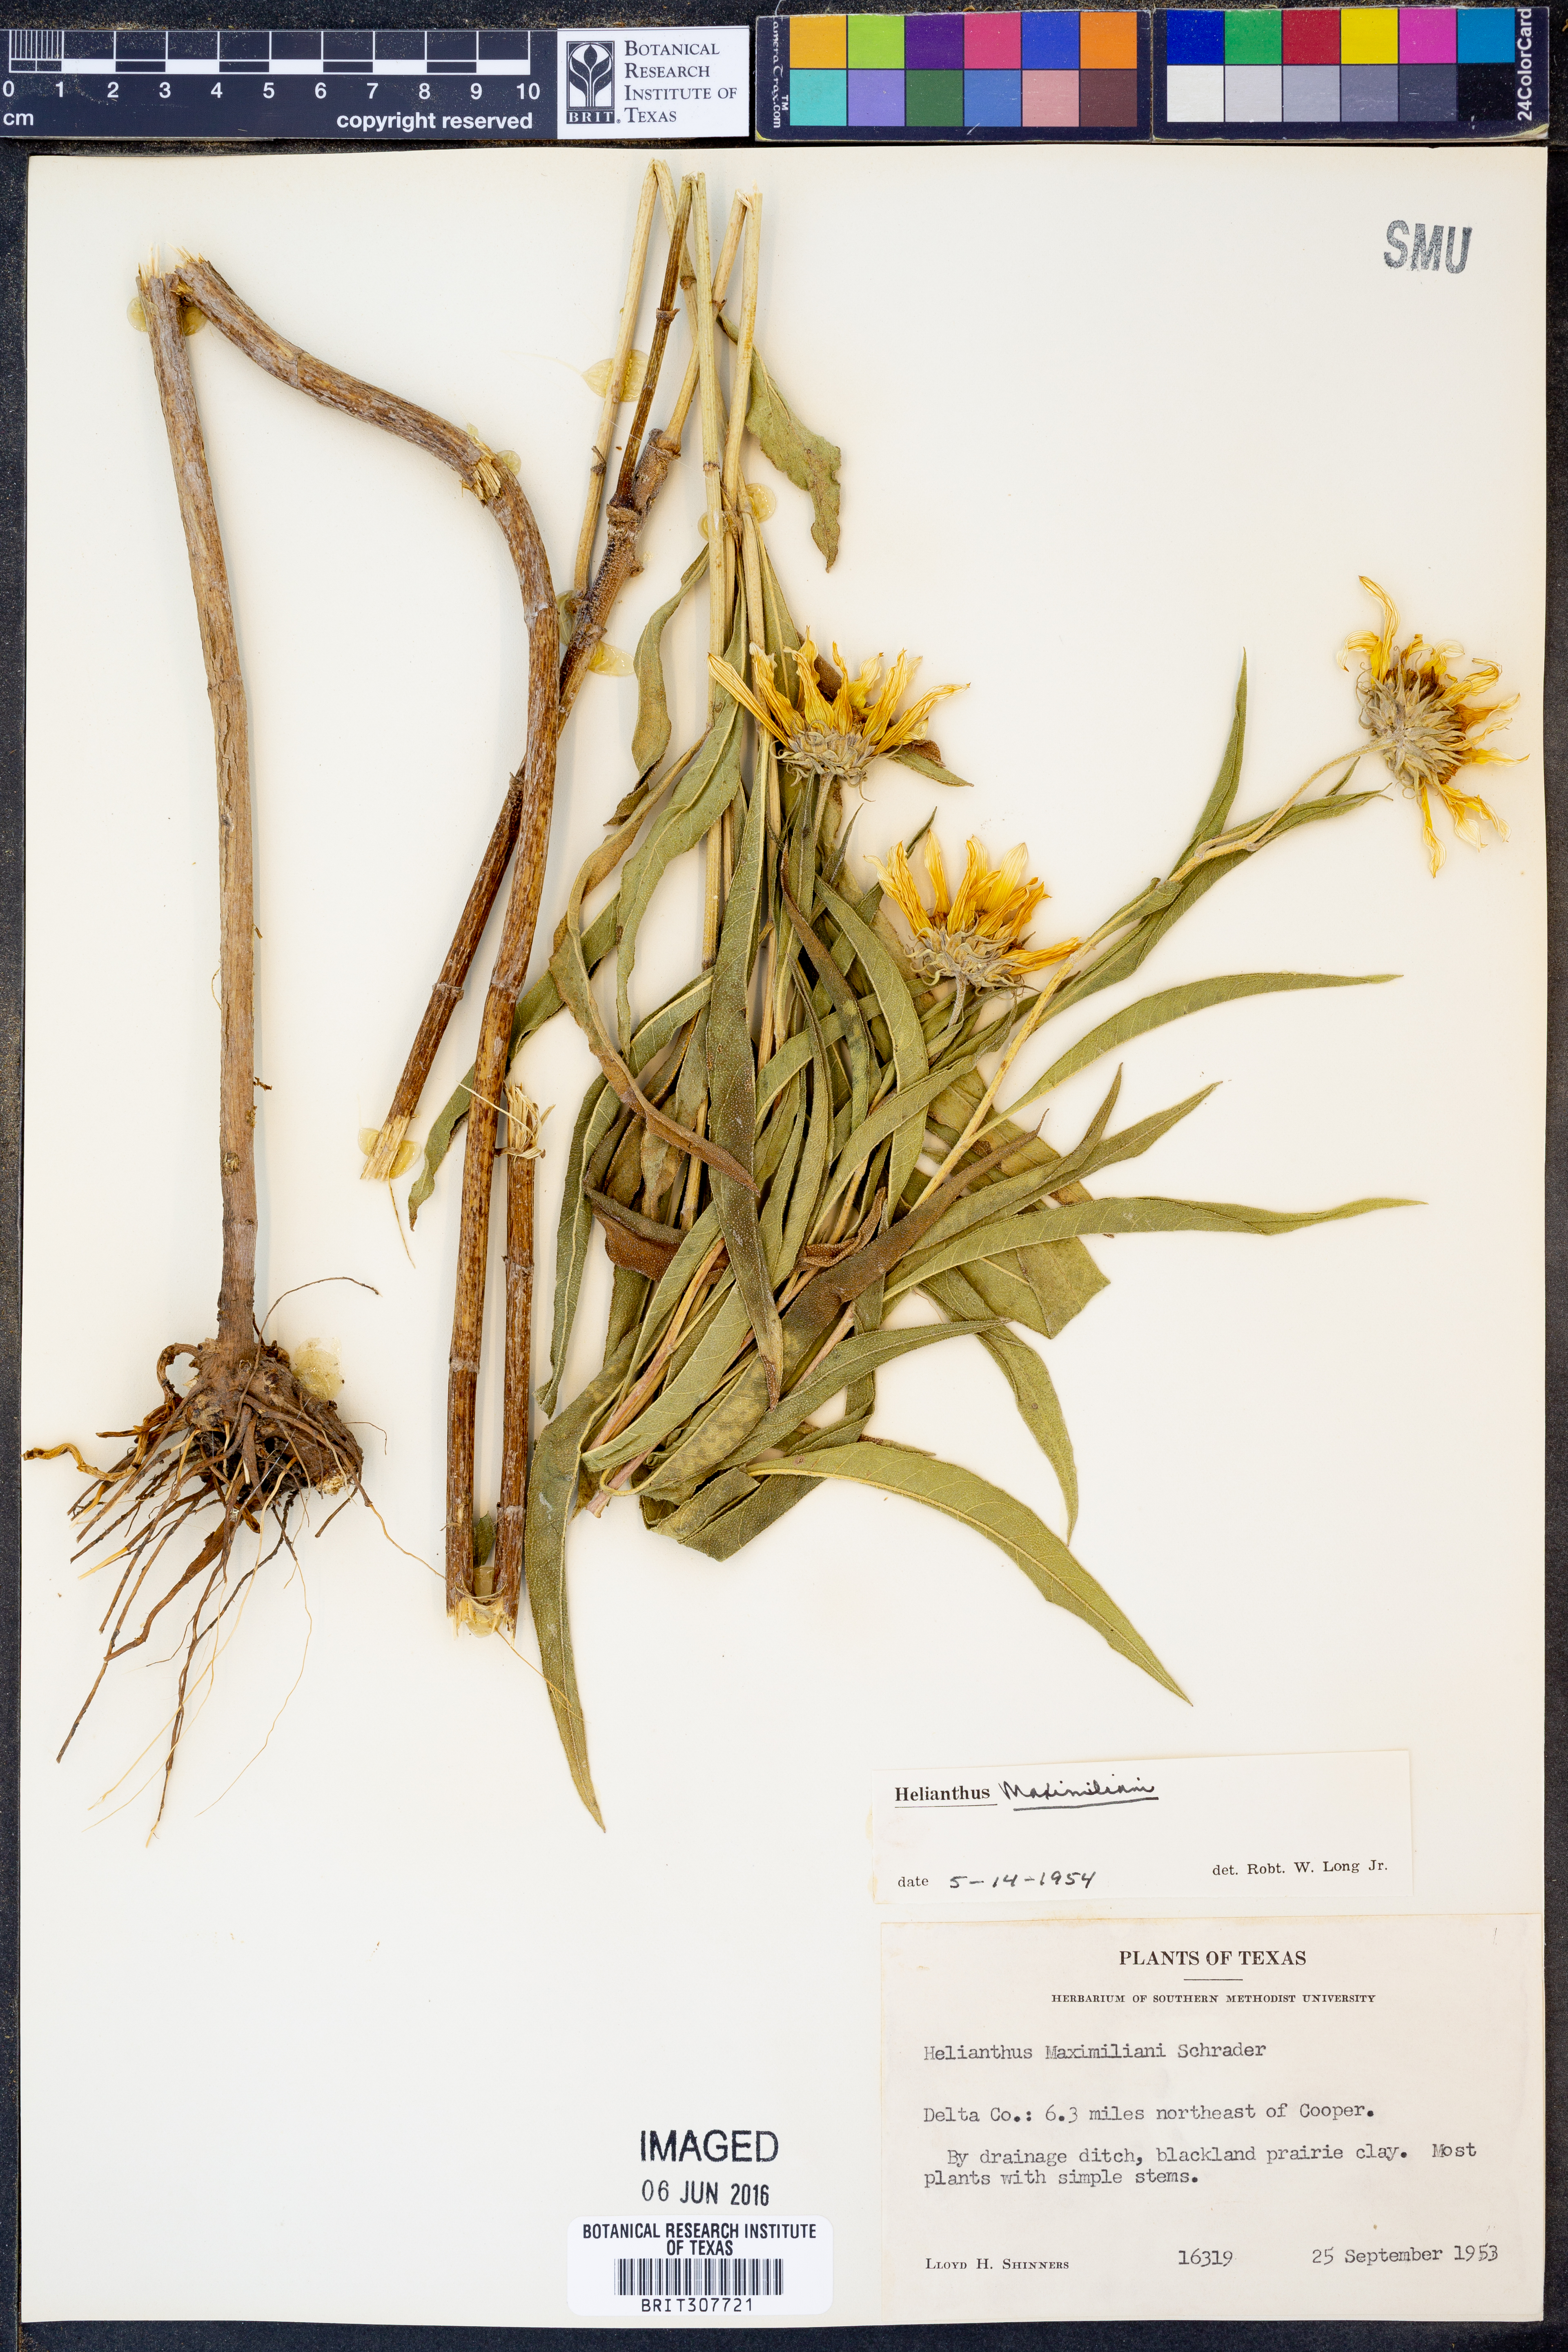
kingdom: Plantae
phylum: Tracheophyta
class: Magnoliopsida
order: Asterales
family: Asteraceae
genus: Helianthus
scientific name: Helianthus maximiliani
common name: Maximilian's sunflower
